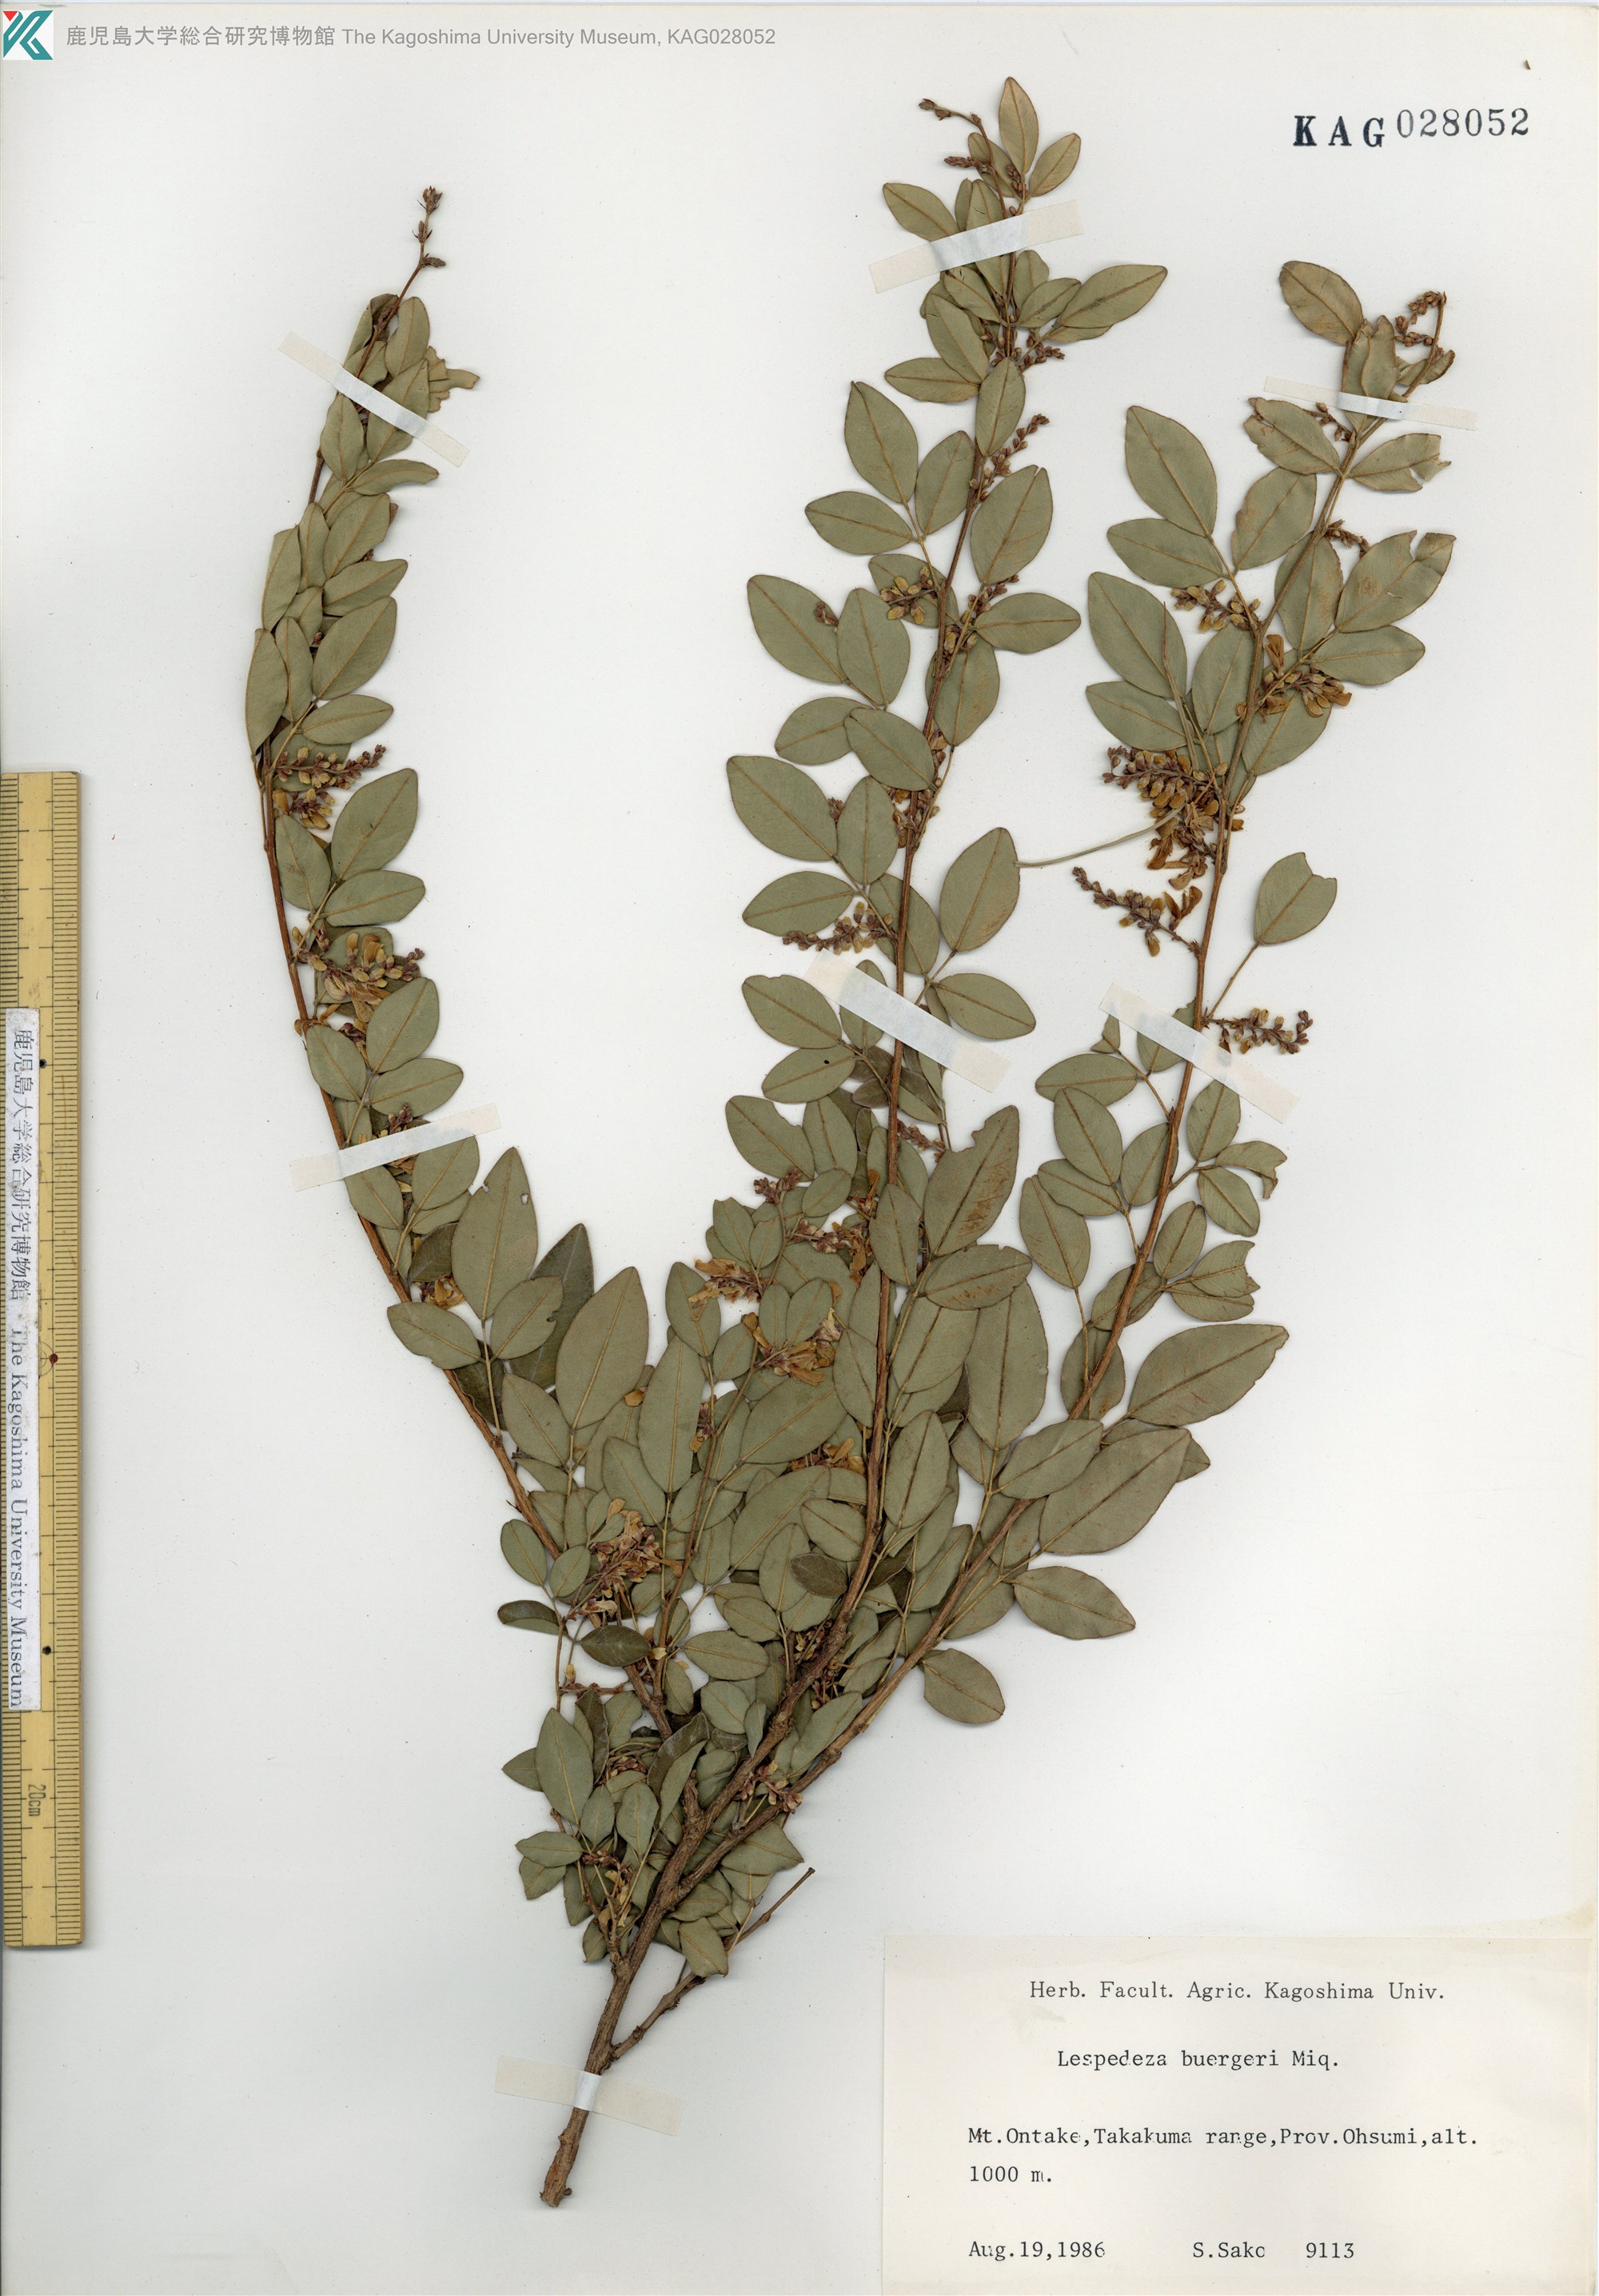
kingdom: Plantae
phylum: Tracheophyta
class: Magnoliopsida
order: Fabales
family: Fabaceae
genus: Lespedeza
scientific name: Lespedeza buergeri
